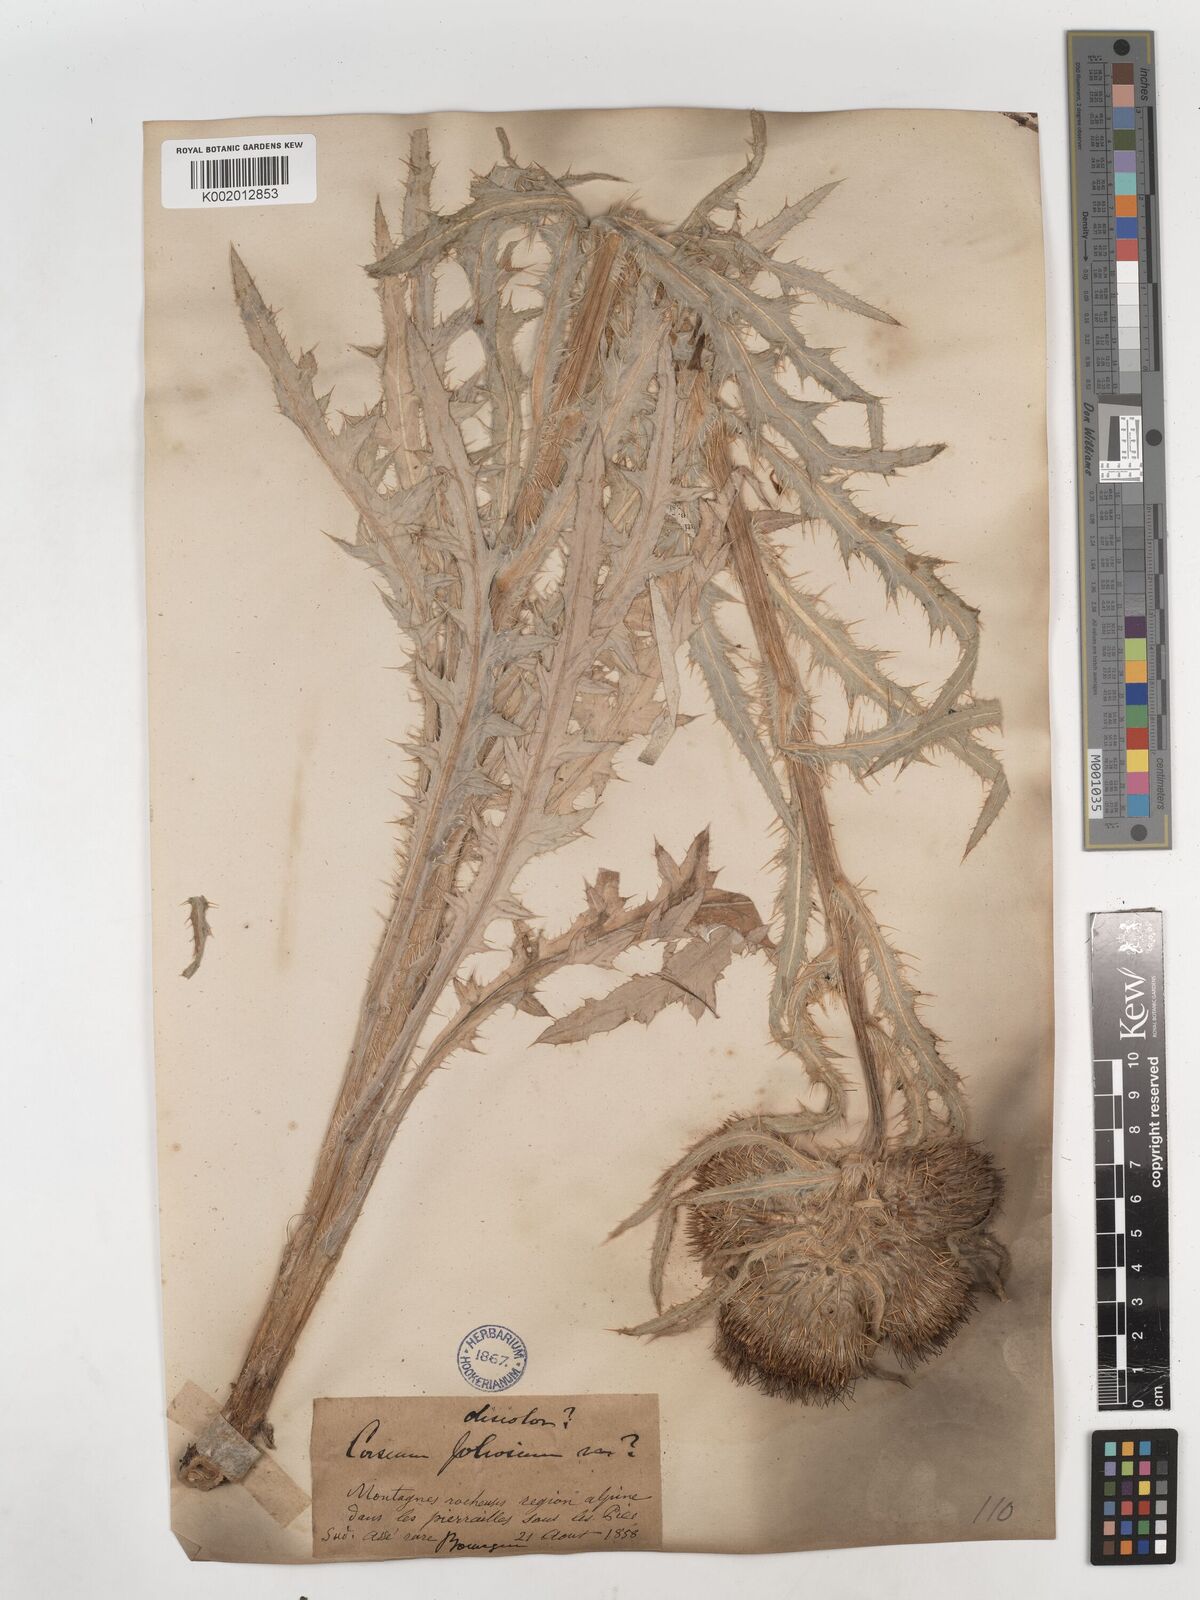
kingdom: Plantae
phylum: Tracheophyta
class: Magnoliopsida
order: Asterales
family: Asteraceae
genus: Cirsium
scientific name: Cirsium
